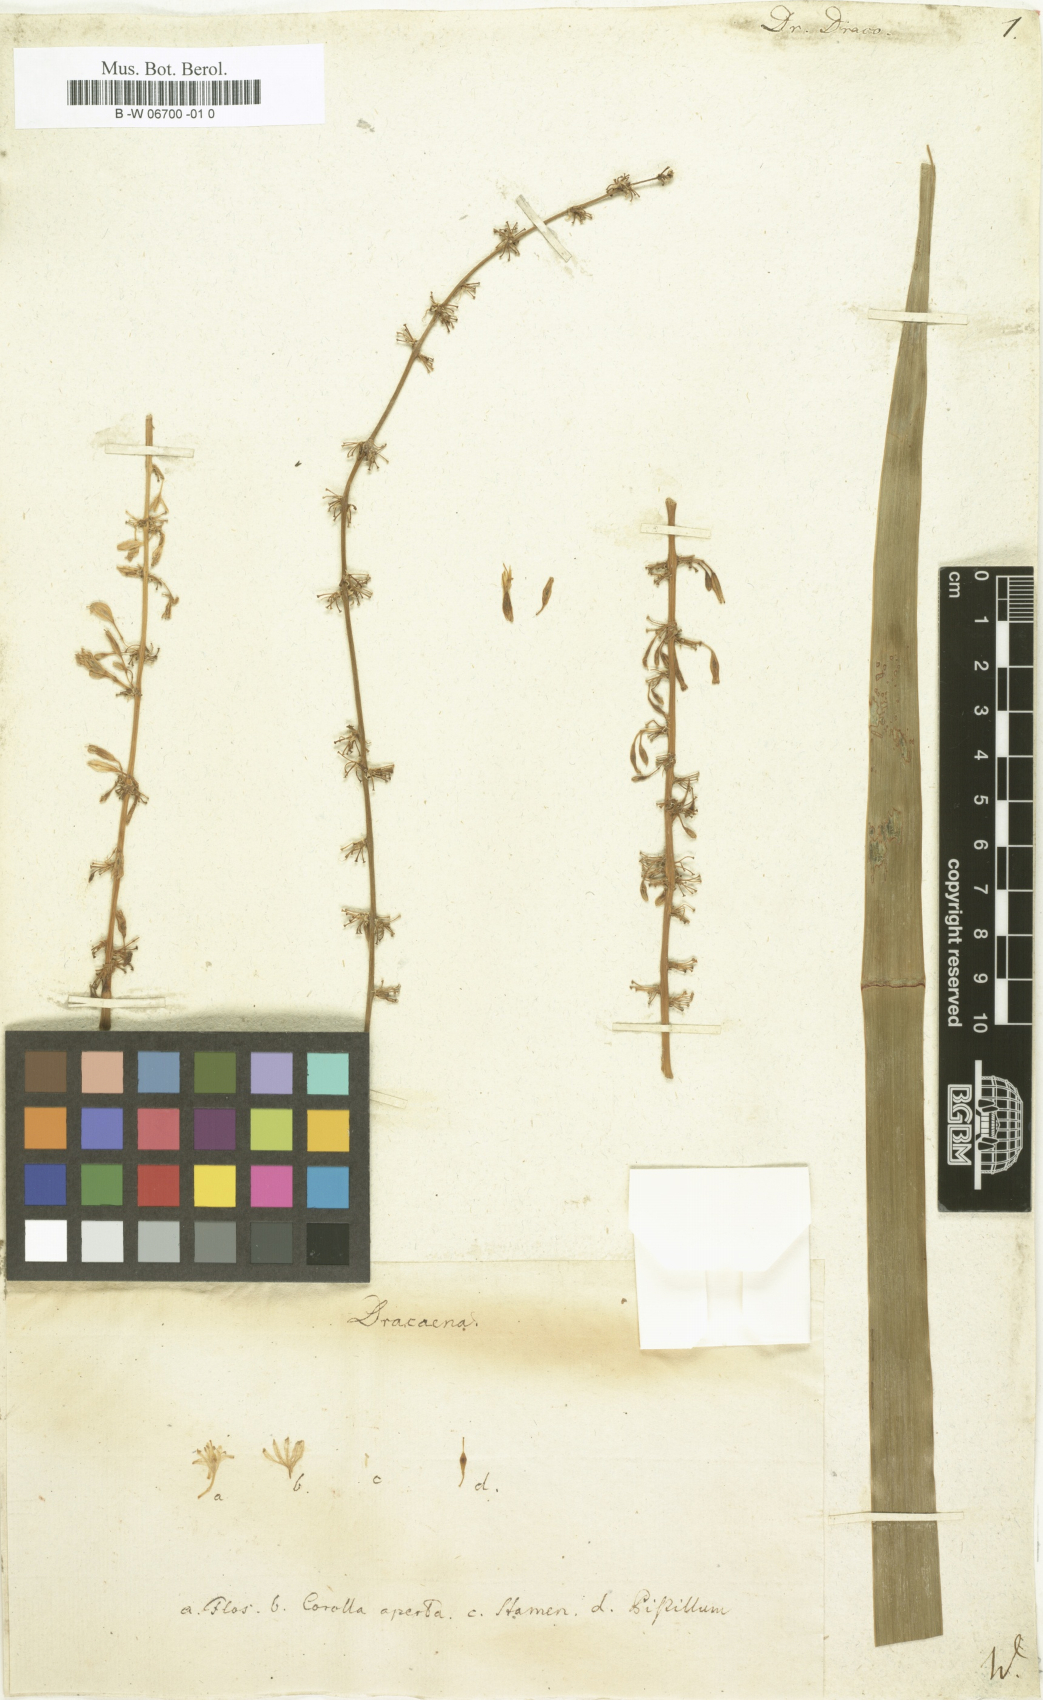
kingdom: Plantae
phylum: Tracheophyta
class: Liliopsida
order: Asparagales
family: Asparagaceae
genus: Dracaena
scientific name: Dracaena draco
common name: Canary island dragon tree
